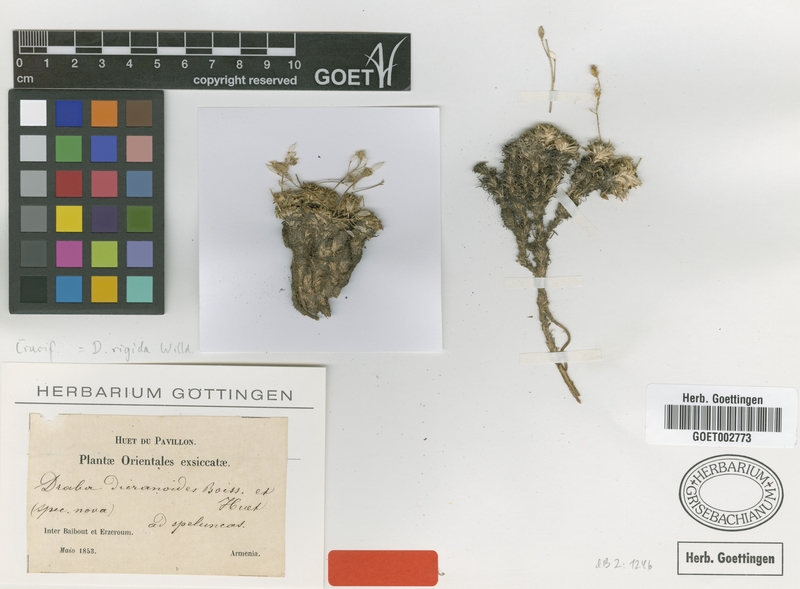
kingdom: Plantae
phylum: Tracheophyta
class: Magnoliopsida
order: Brassicales
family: Brassicaceae
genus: Draba
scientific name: Draba rigida
